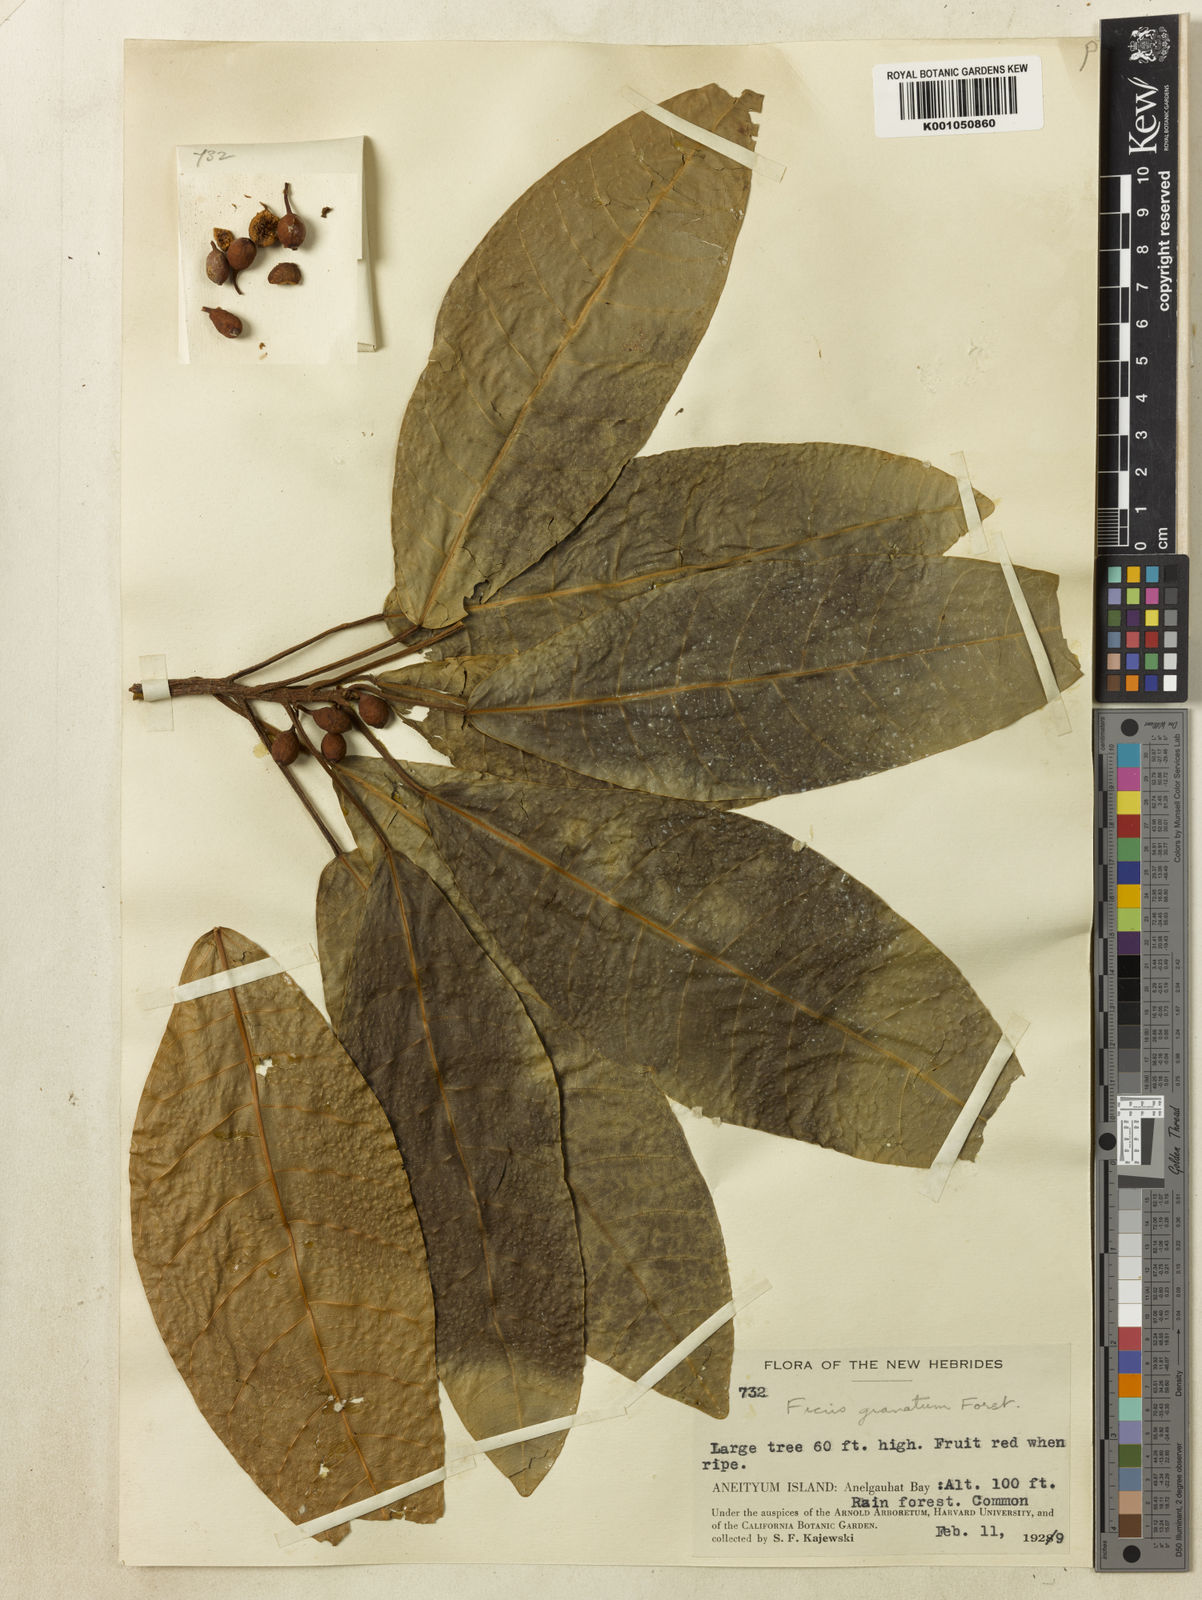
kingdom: Plantae
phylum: Tracheophyta
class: Magnoliopsida
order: Rosales
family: Moraceae
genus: Ficus
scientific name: Ficus granatum
